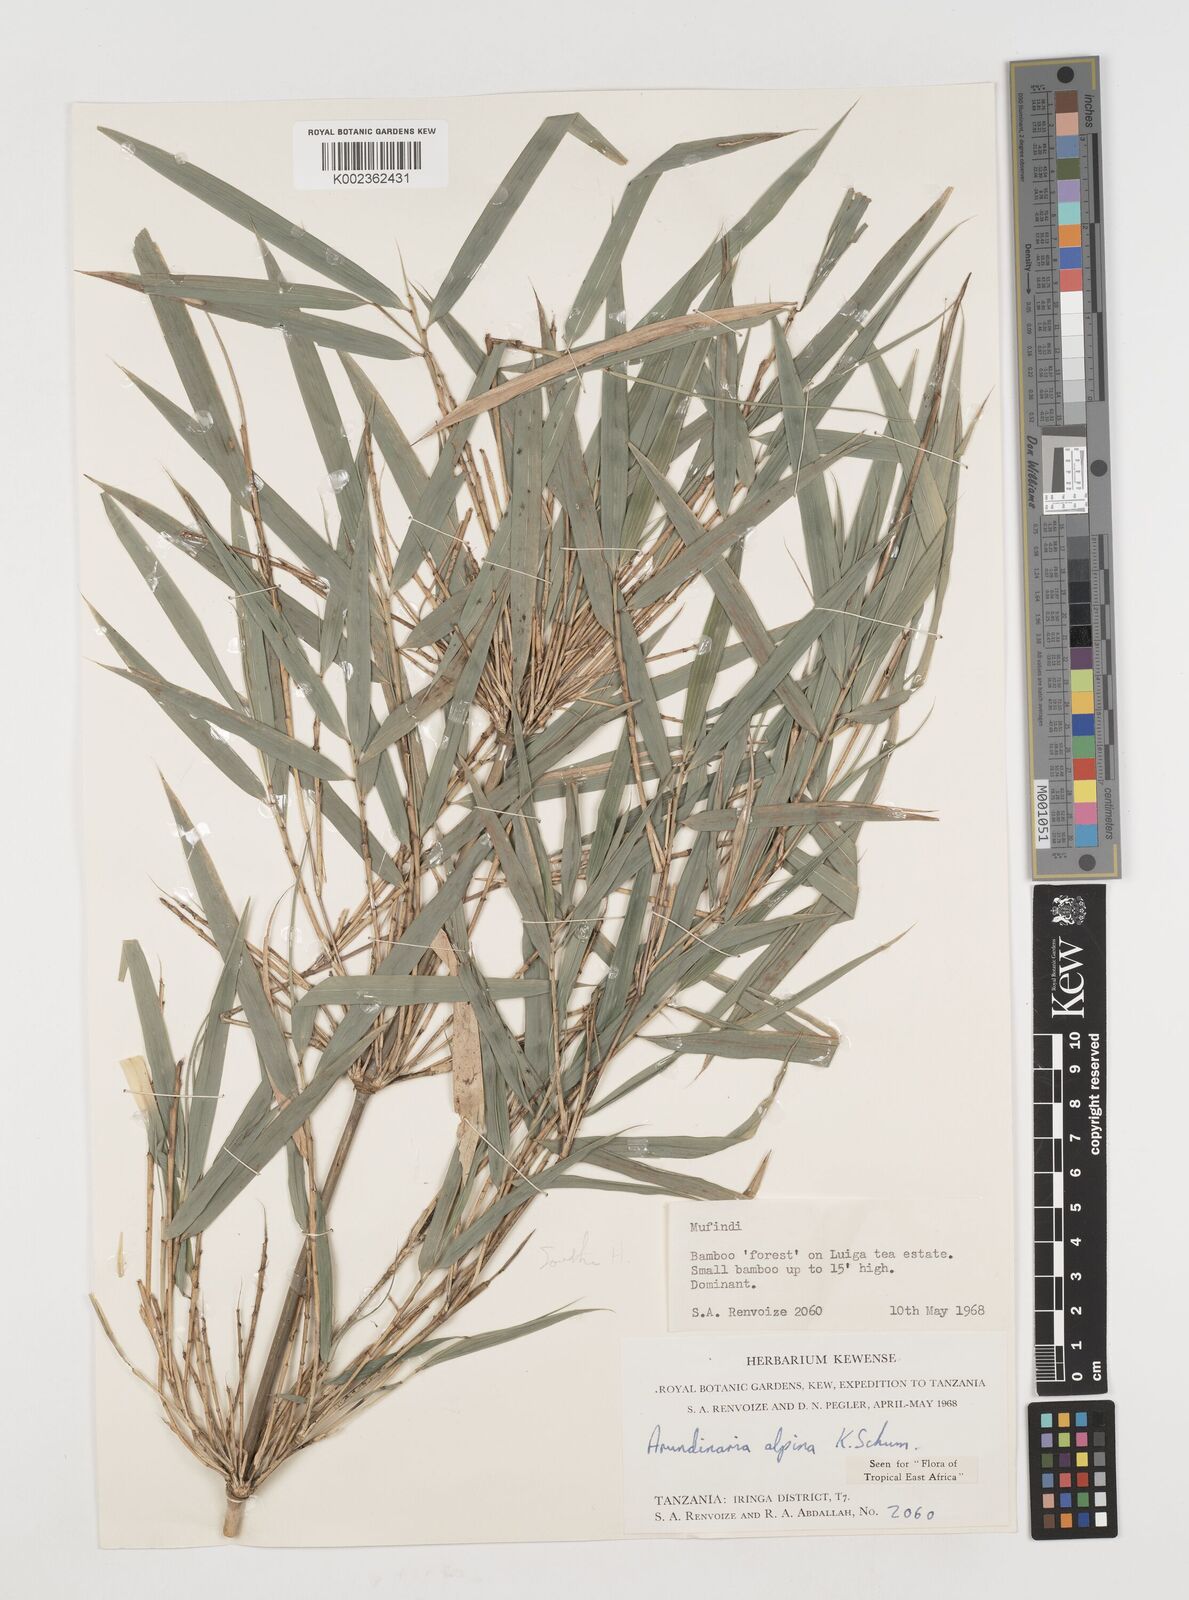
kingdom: Plantae
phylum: Tracheophyta
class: Liliopsida
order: Poales
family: Poaceae
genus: Oldeania
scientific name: Oldeania alpina
